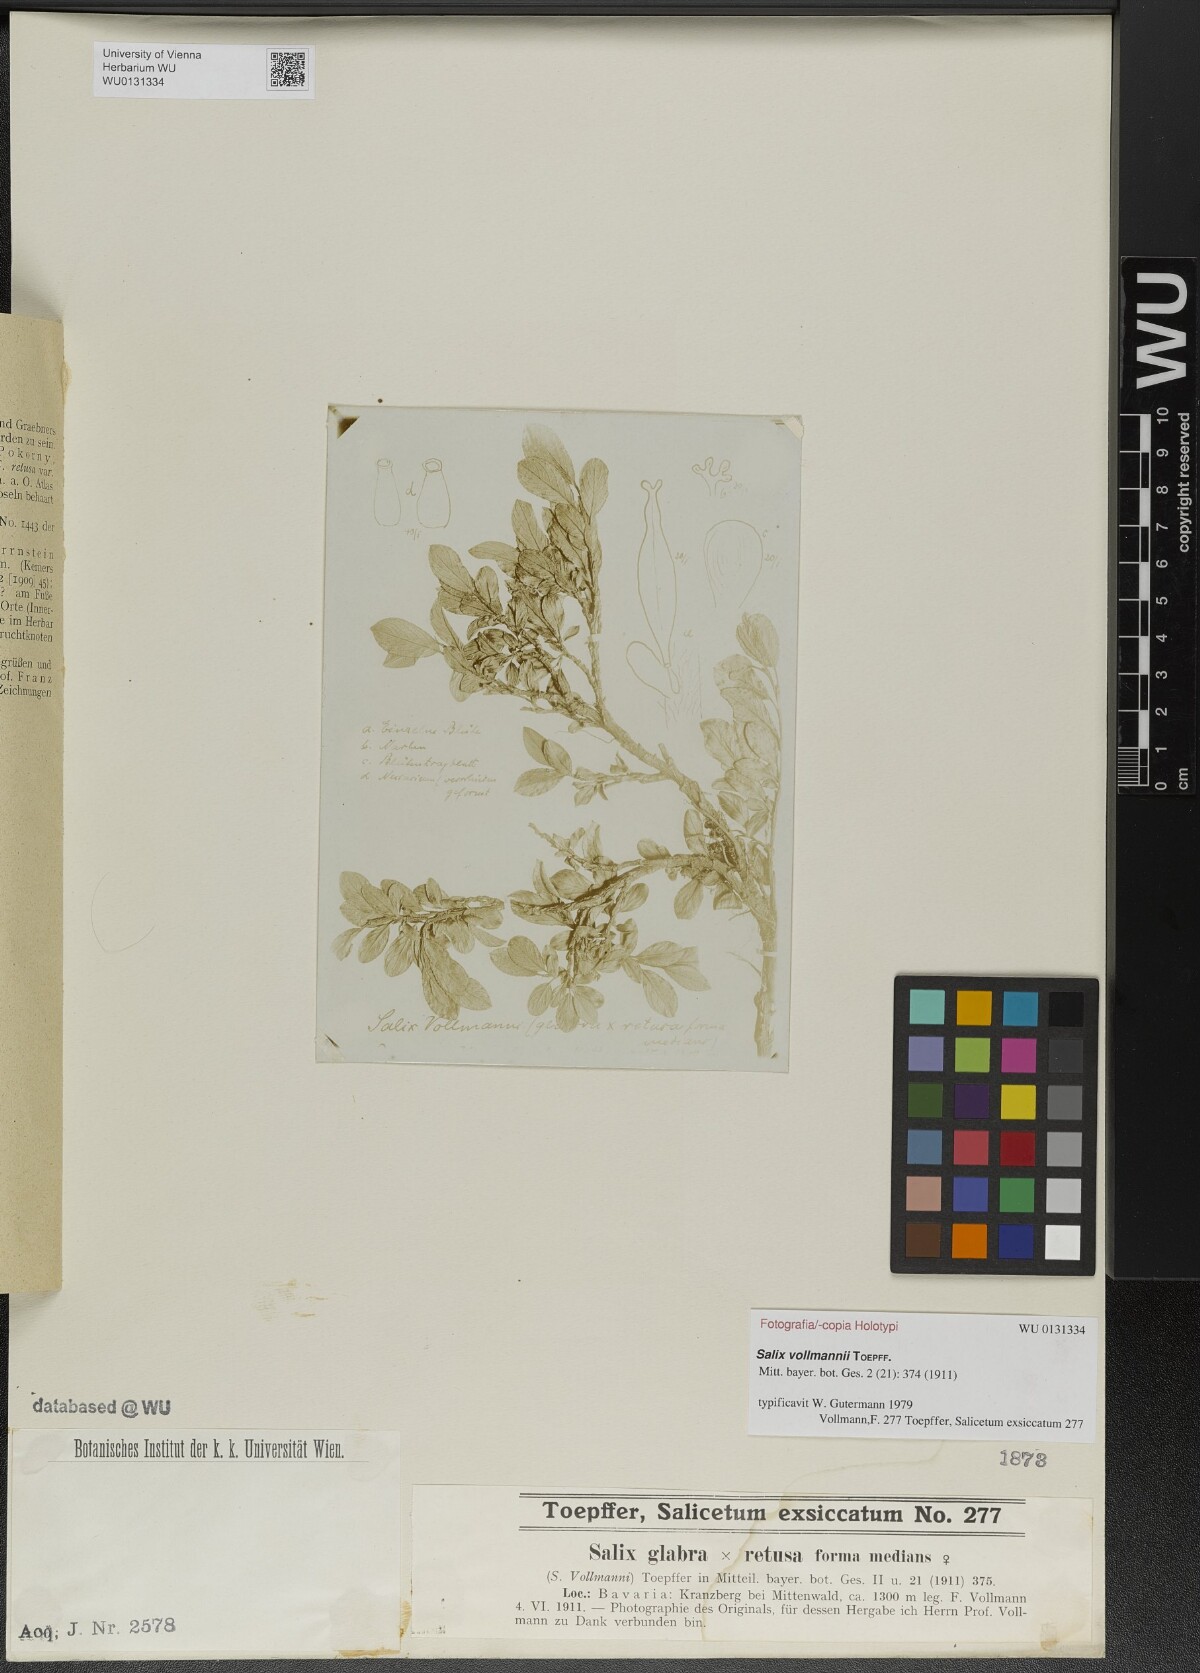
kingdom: Plantae
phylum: Tracheophyta
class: Magnoliopsida
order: Malpighiales
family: Salicaceae
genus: Salix
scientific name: Salix vollmannii
